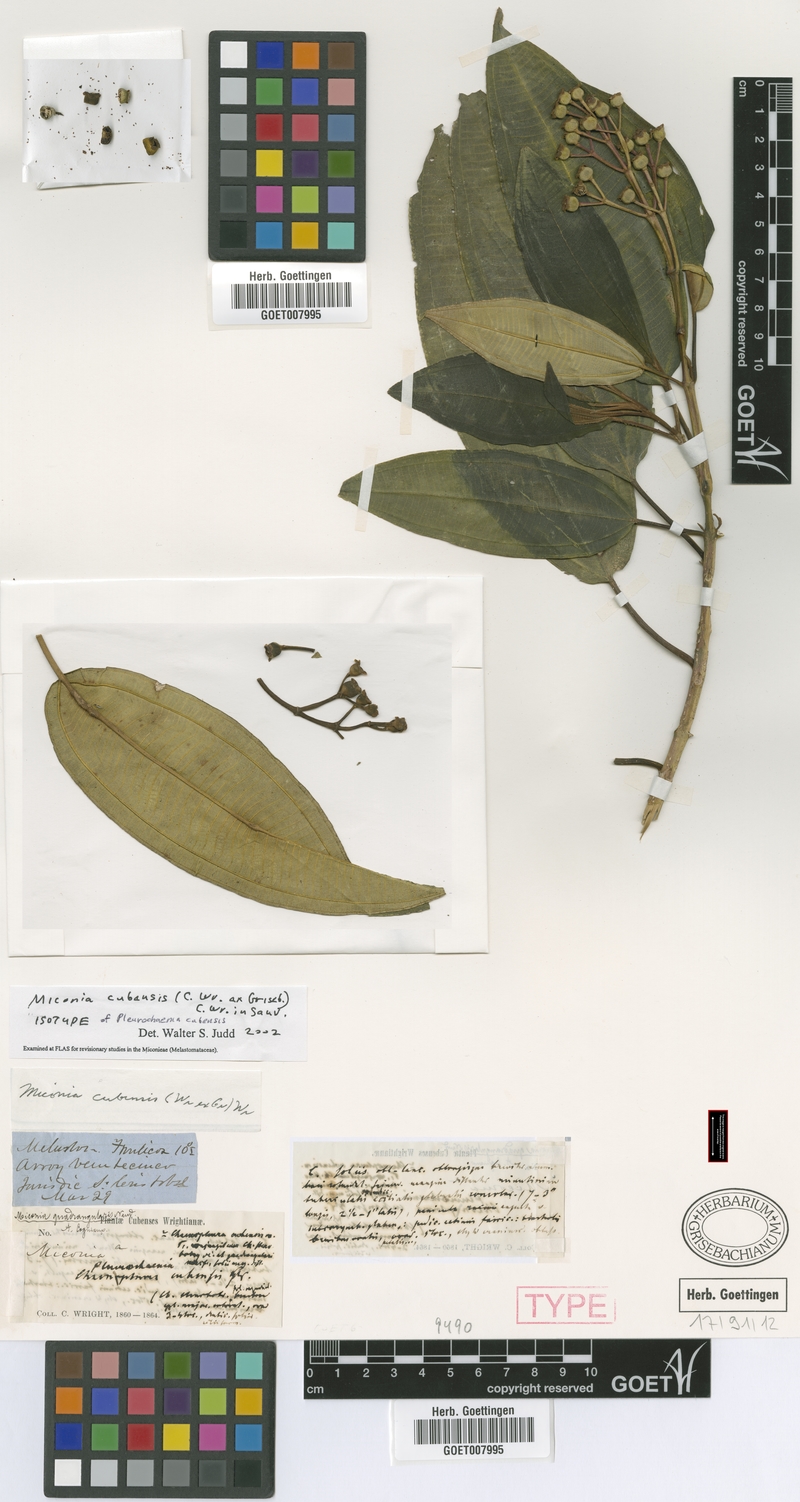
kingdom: Plantae
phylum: Tracheophyta
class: Magnoliopsida
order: Myrtales
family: Melastomataceae
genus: Miconia
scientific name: Miconia cubensis
